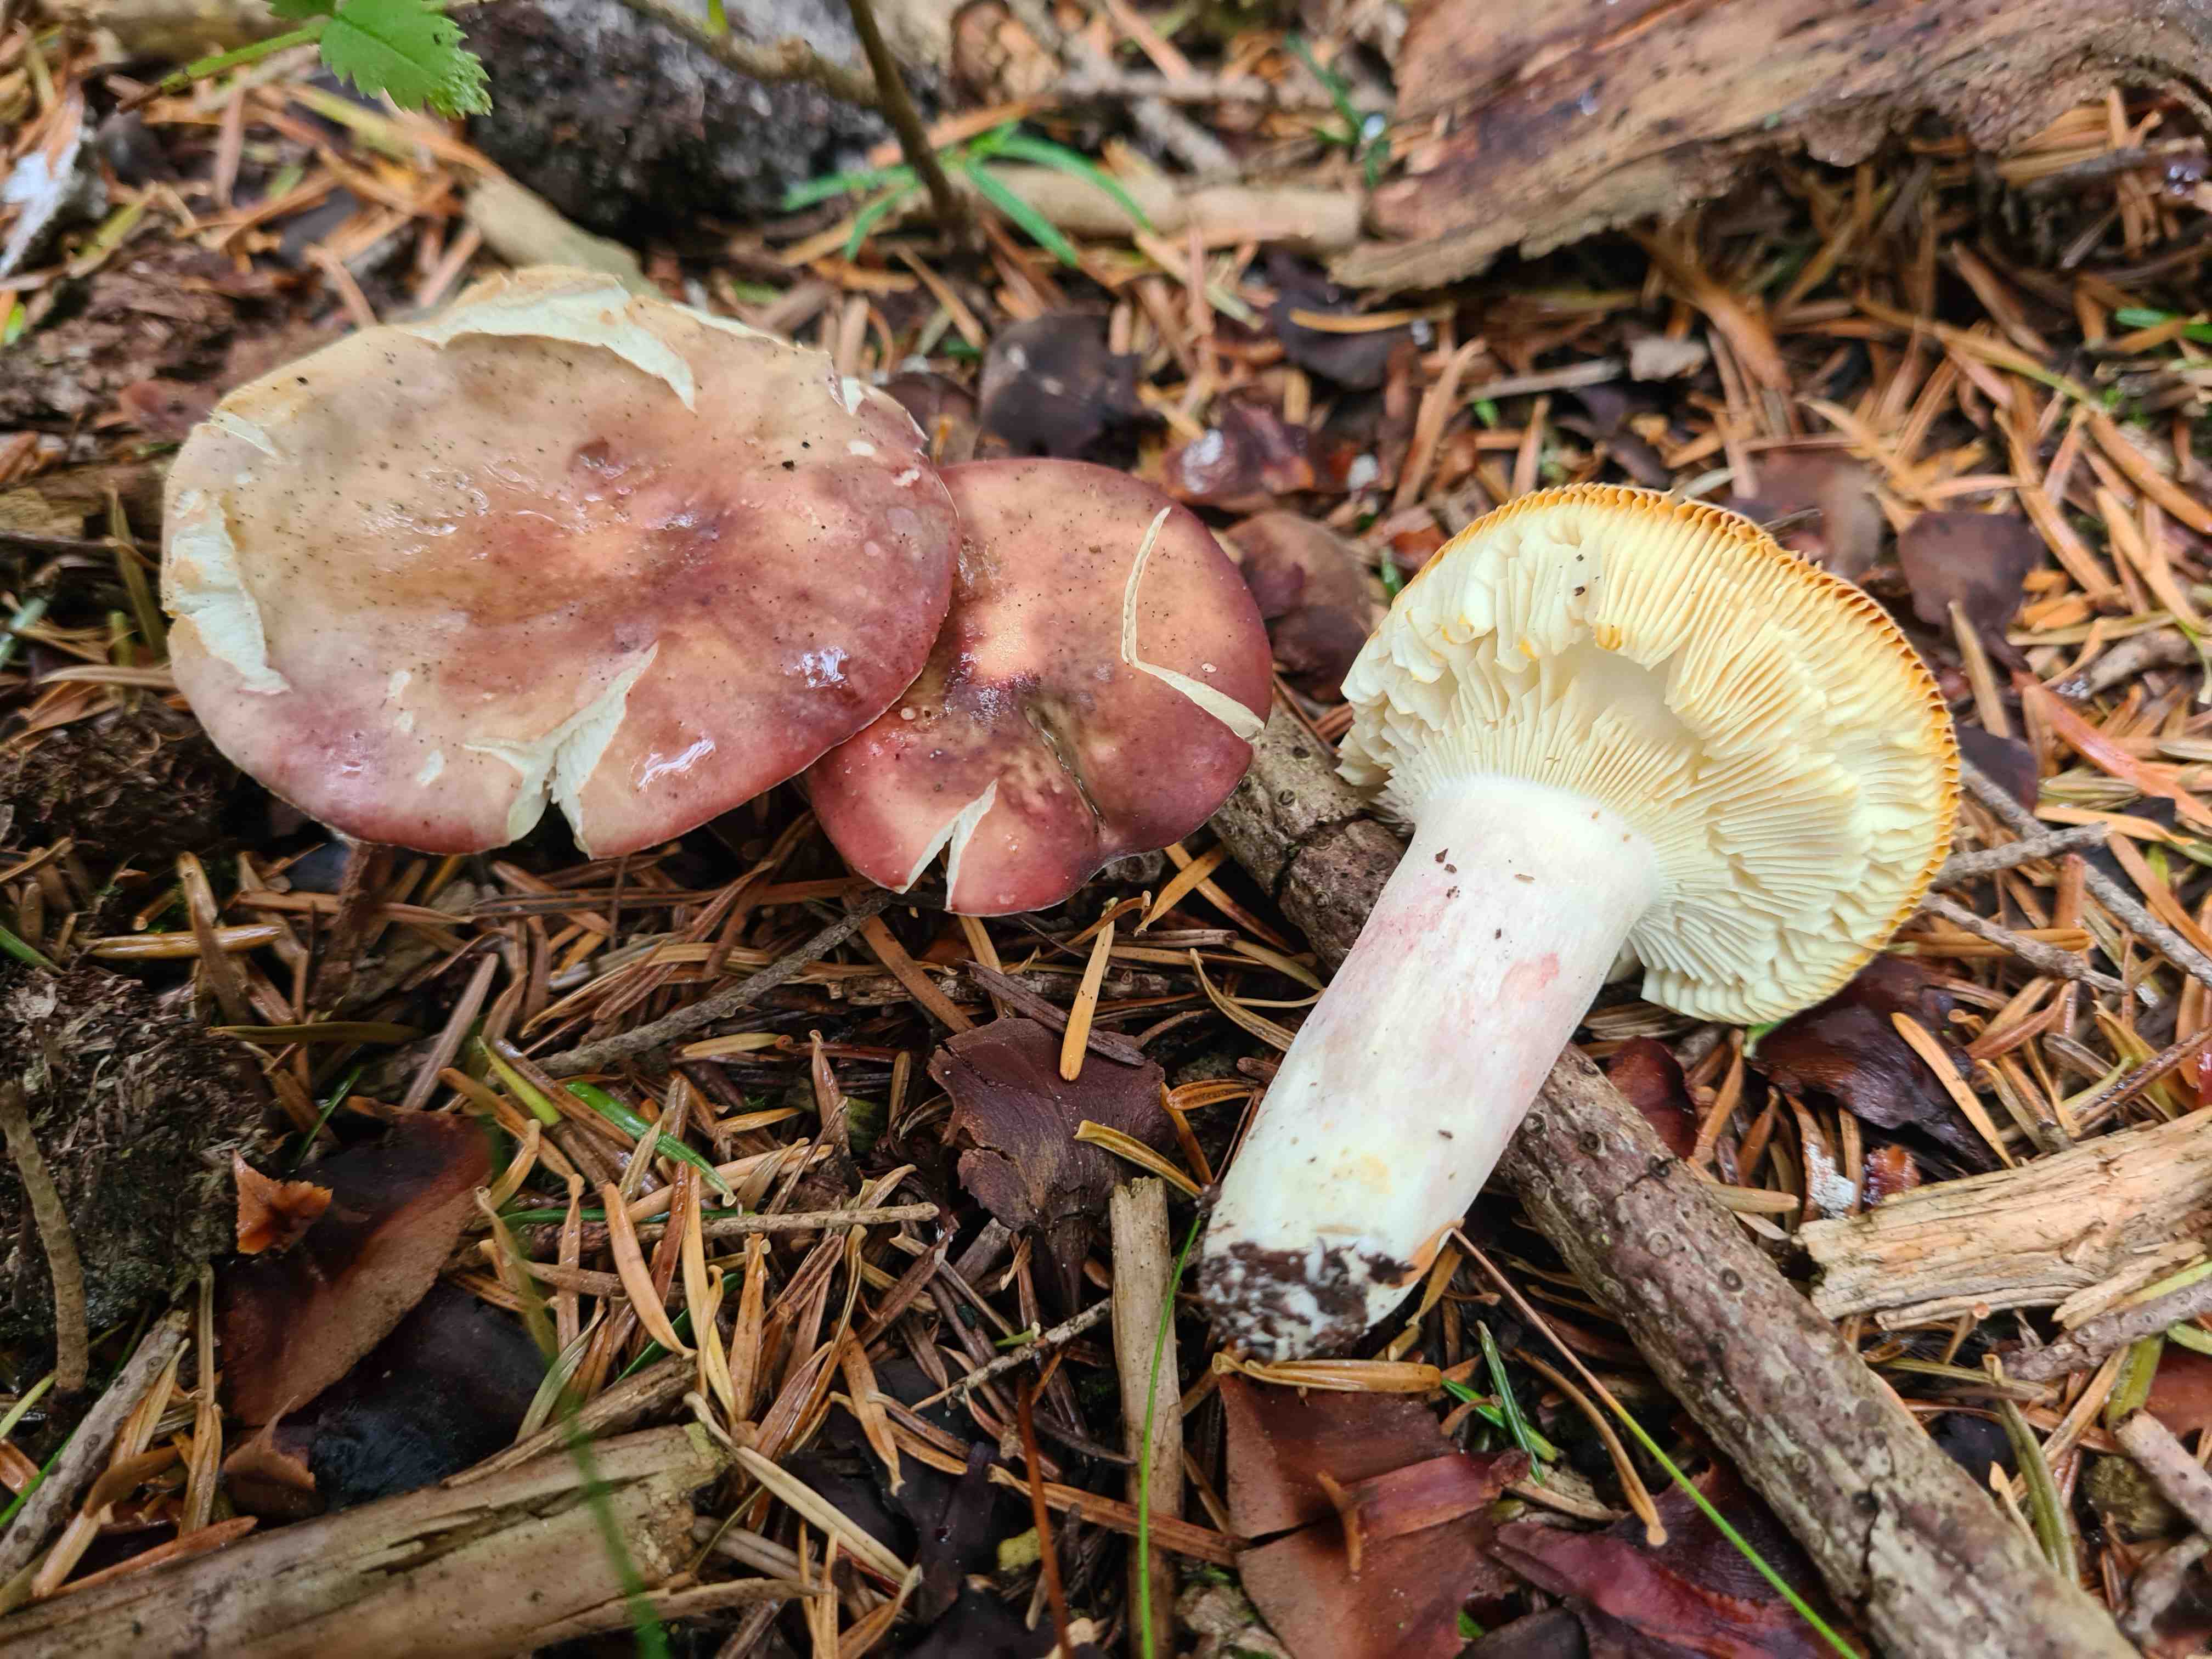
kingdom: Fungi
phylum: Basidiomycota
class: Agaricomycetes
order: Russulales
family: Russulaceae
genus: Russula
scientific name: Russula sardonia
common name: citronbladet skørhat
